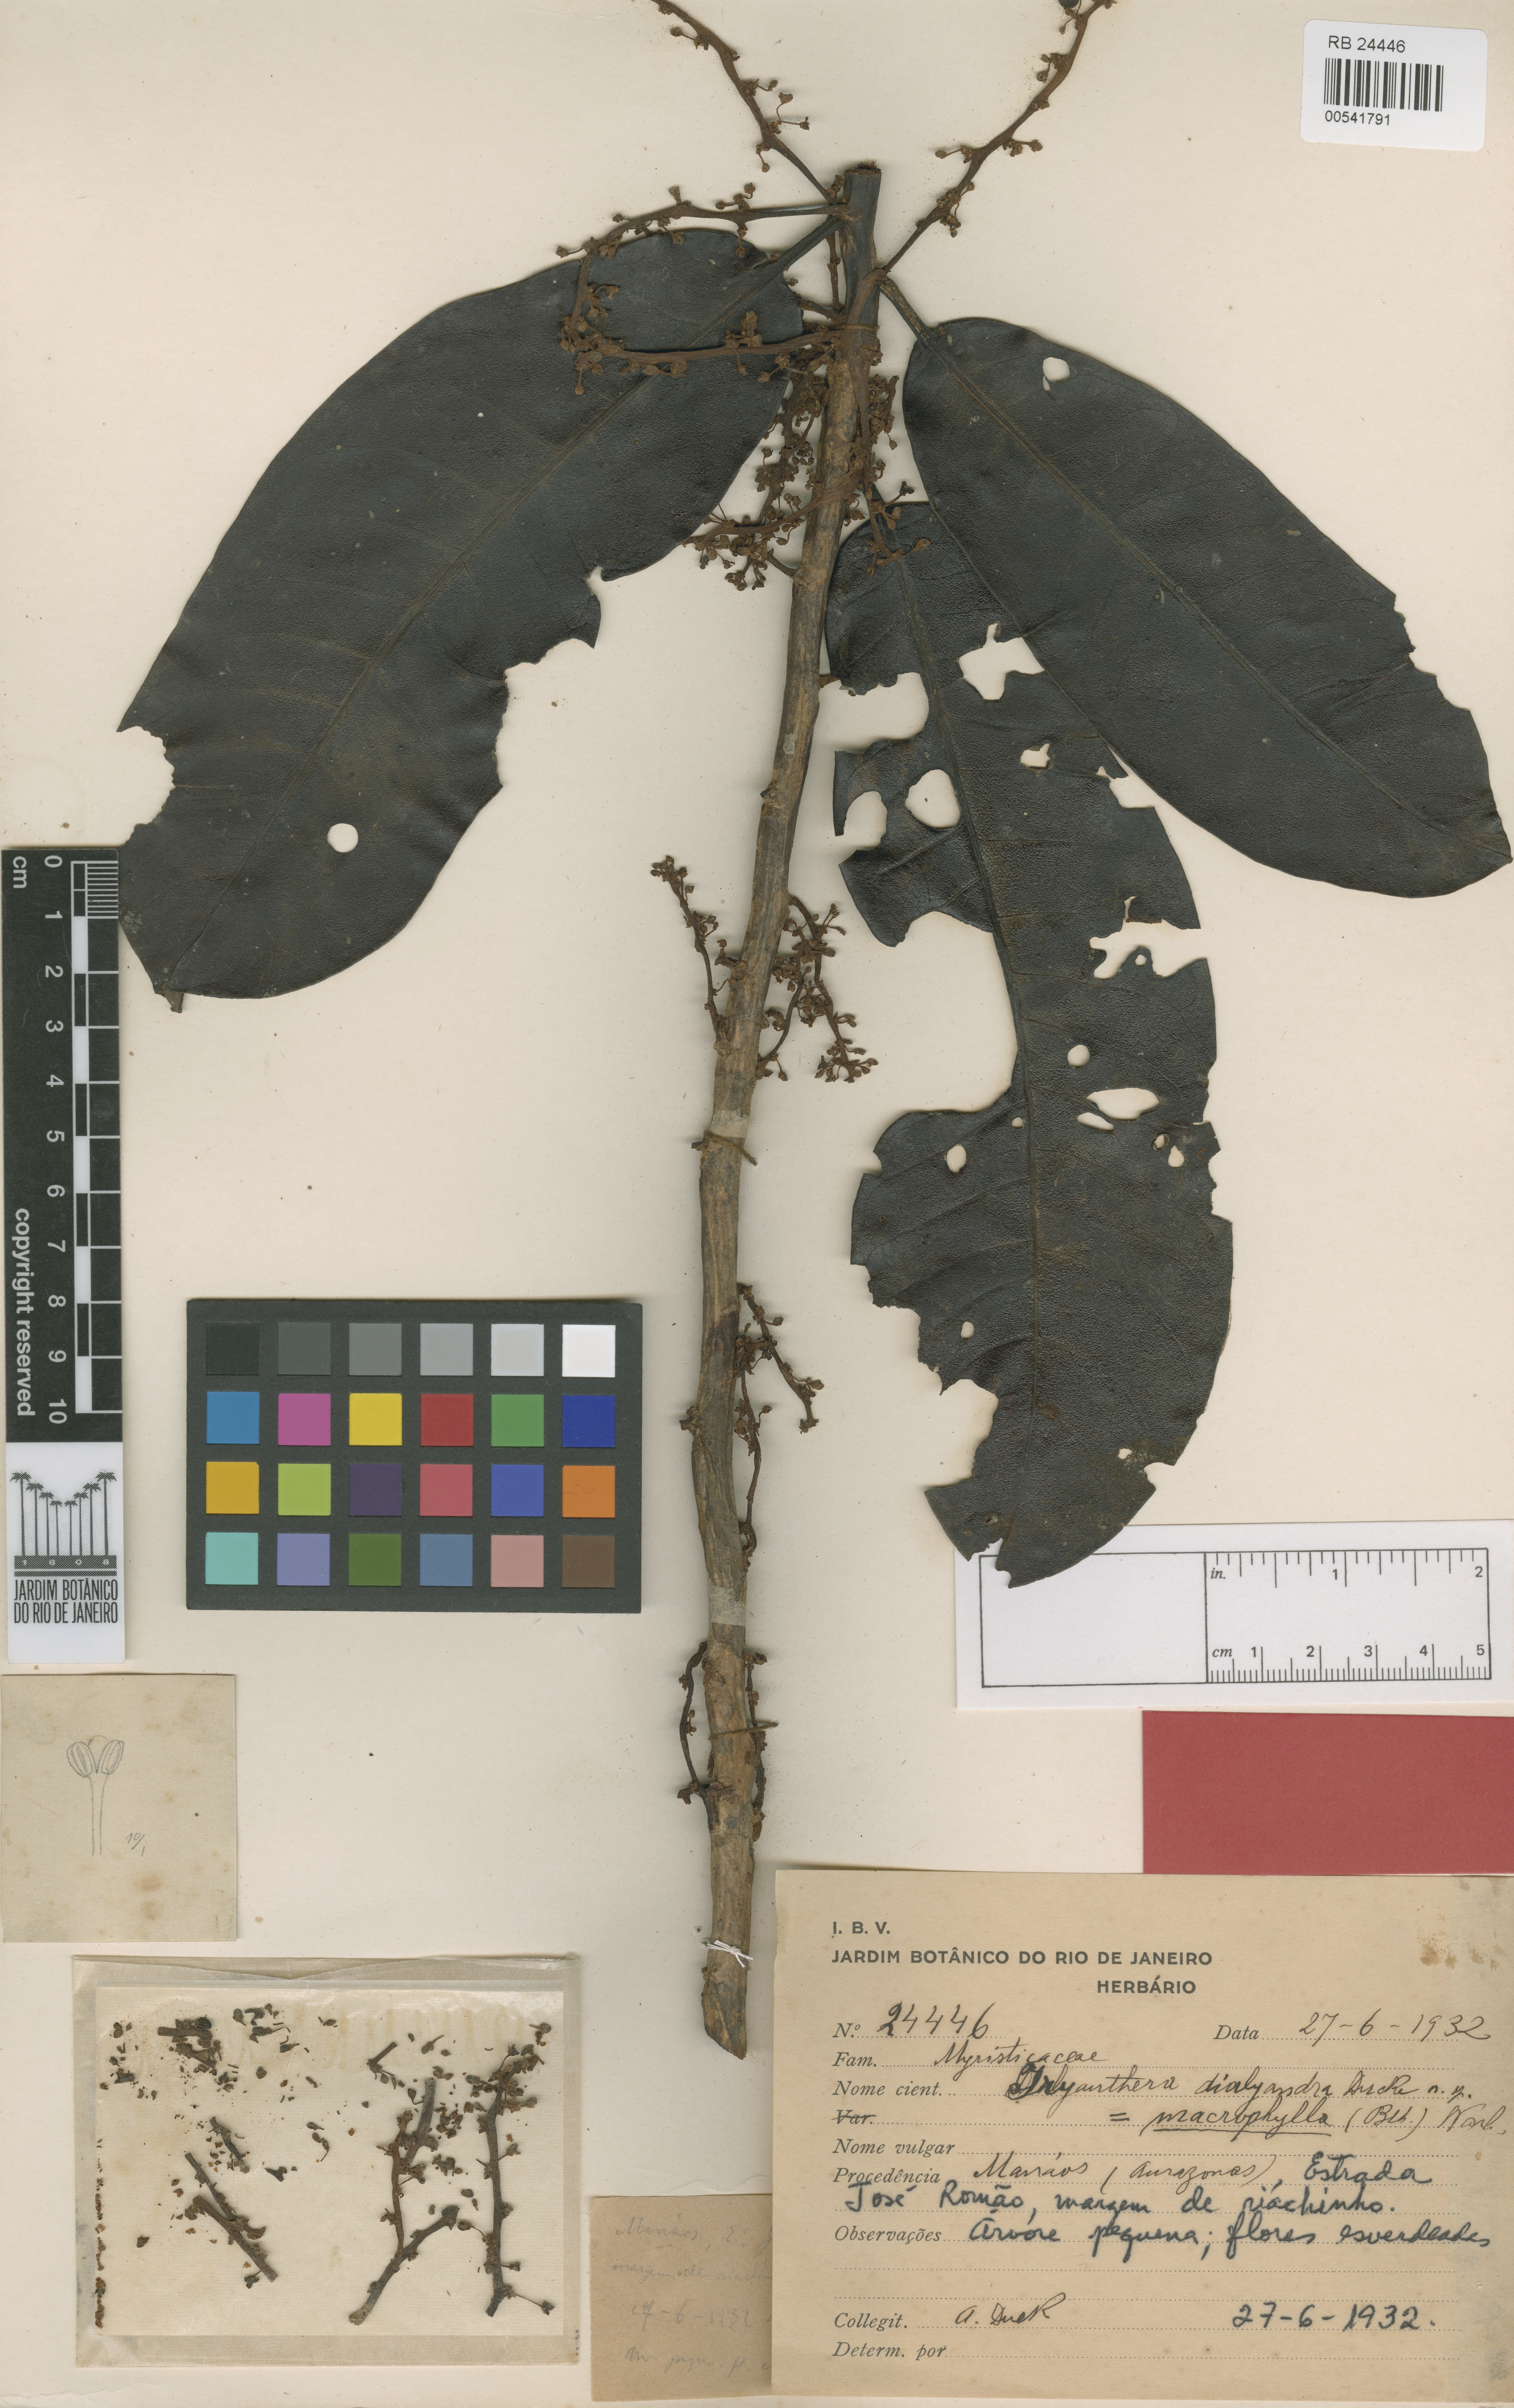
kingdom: Plantae
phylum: Tracheophyta
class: Magnoliopsida
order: Magnoliales
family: Myristicaceae
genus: Iryanthera
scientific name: Iryanthera dialyandra
